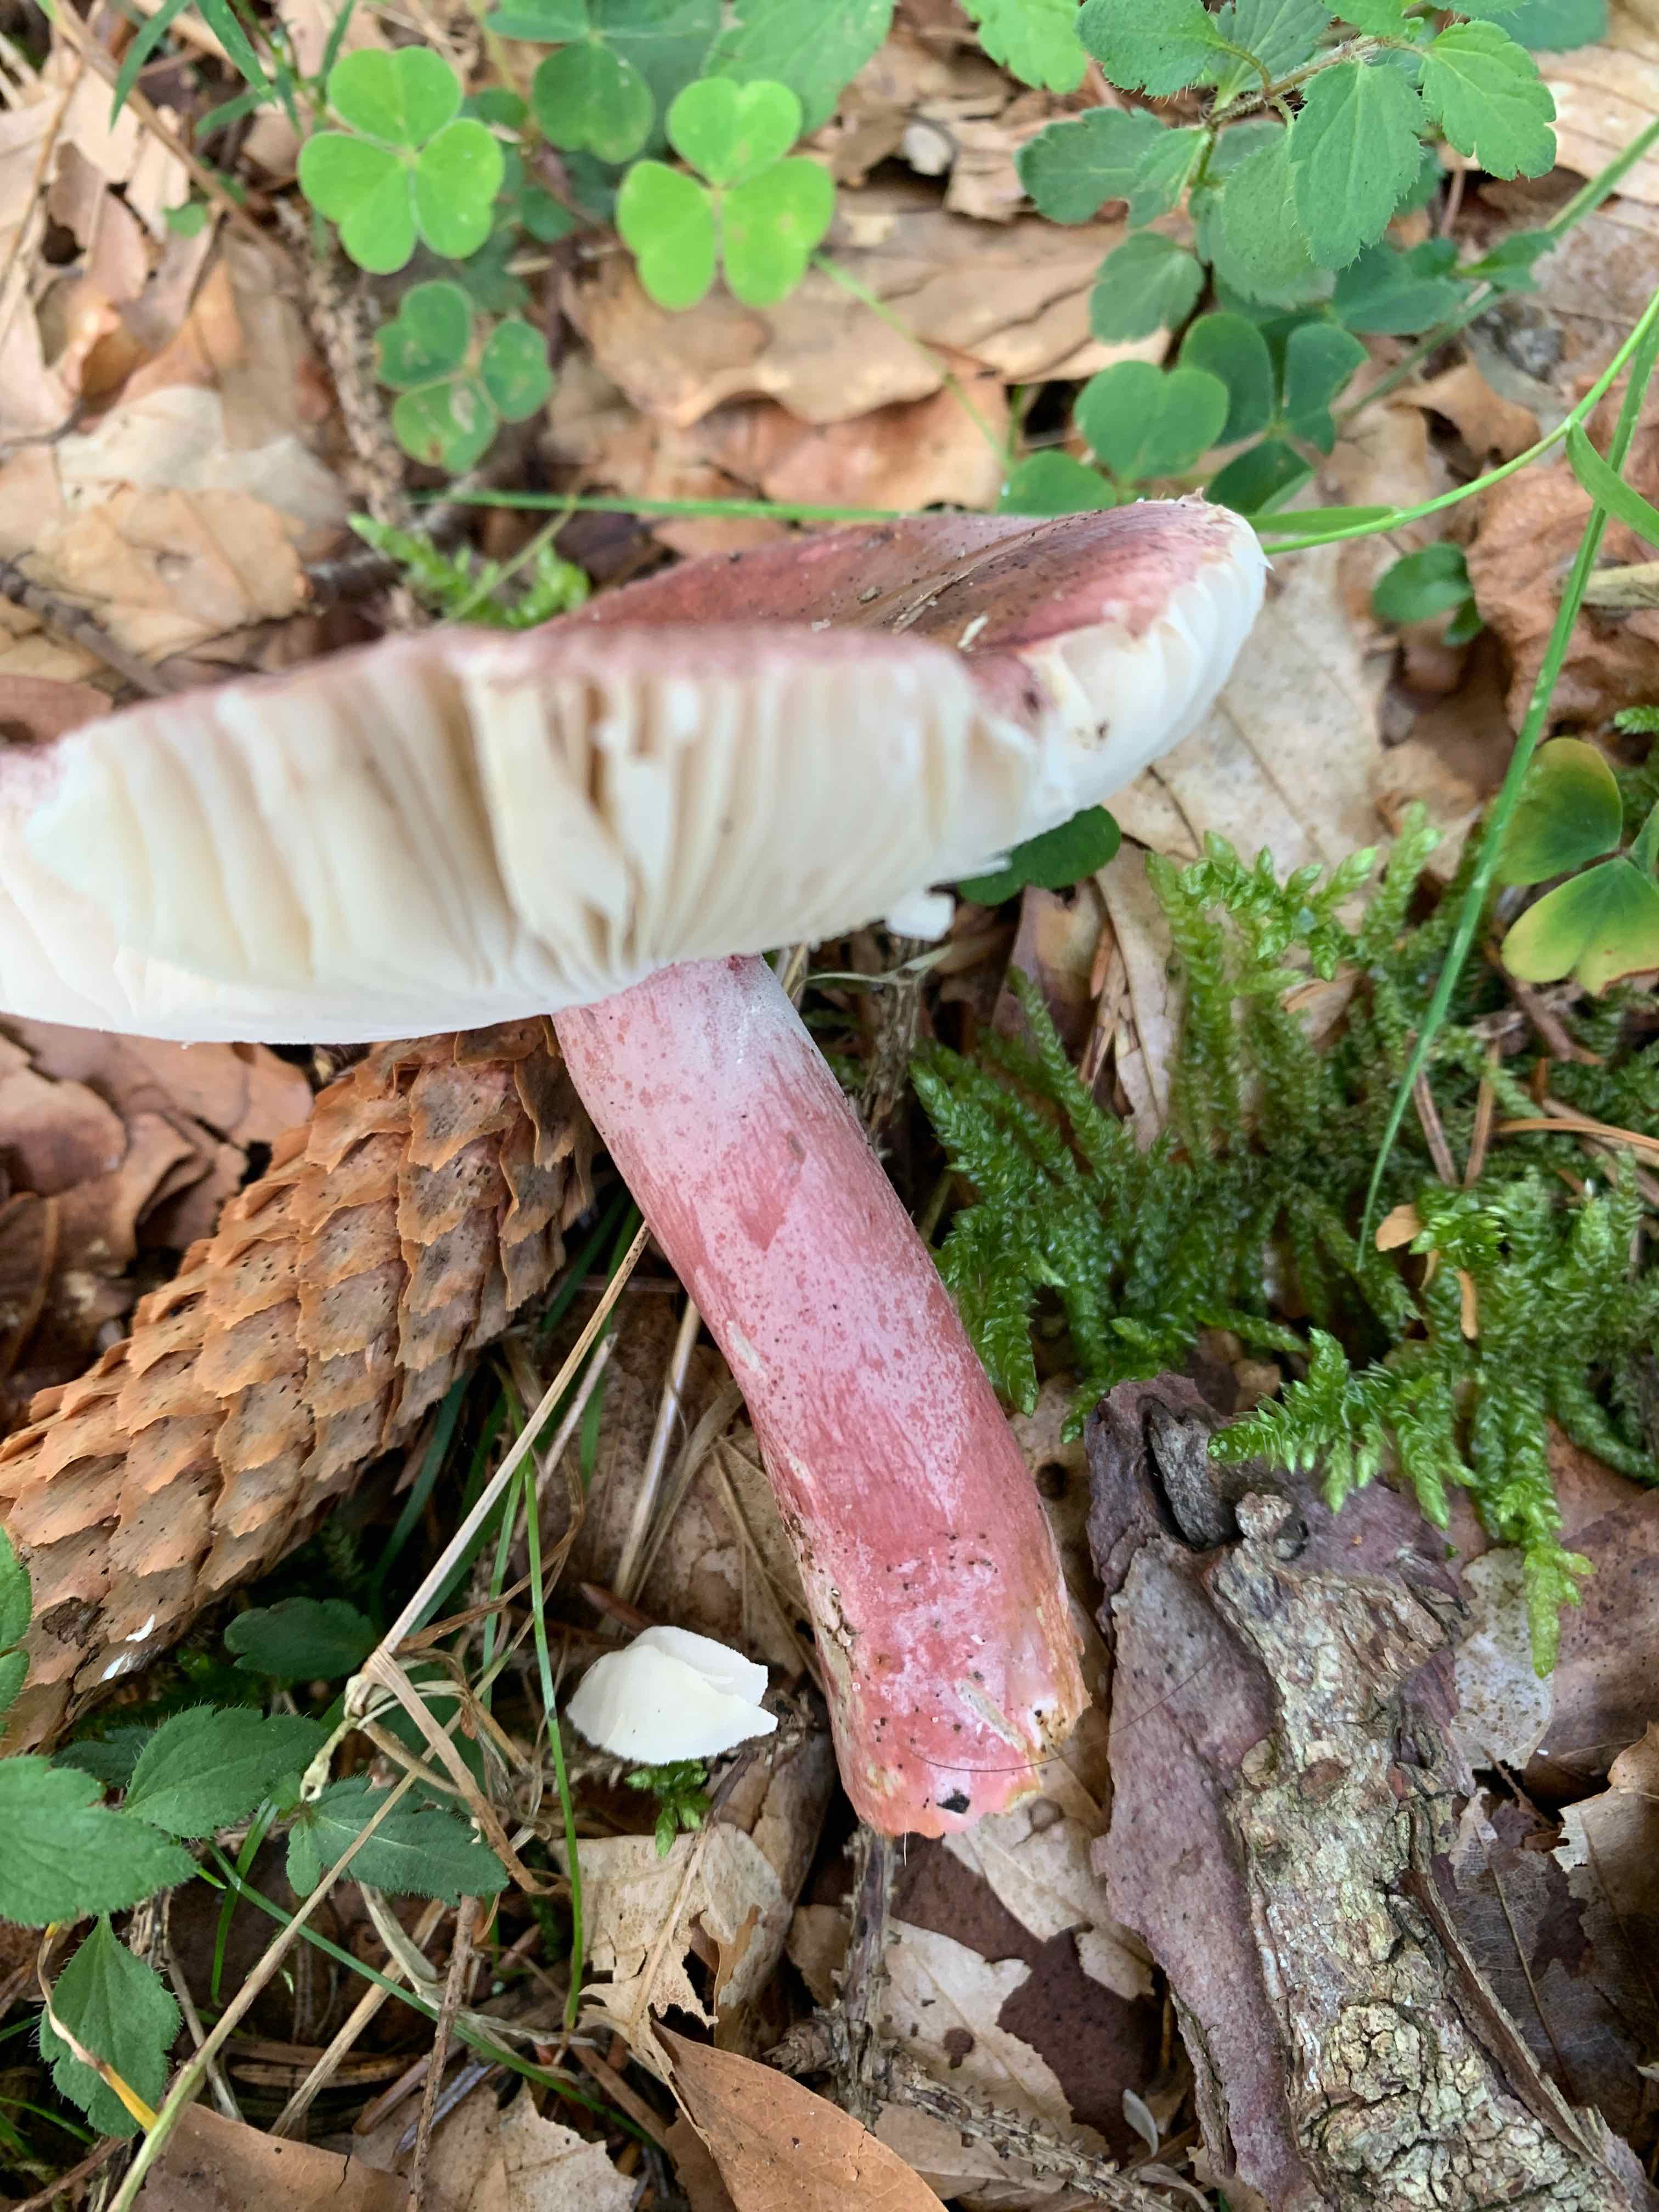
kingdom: Fungi
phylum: Basidiomycota
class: Agaricomycetes
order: Russulales
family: Russulaceae
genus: Russula
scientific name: Russula queletii
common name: Quélets skørhat
